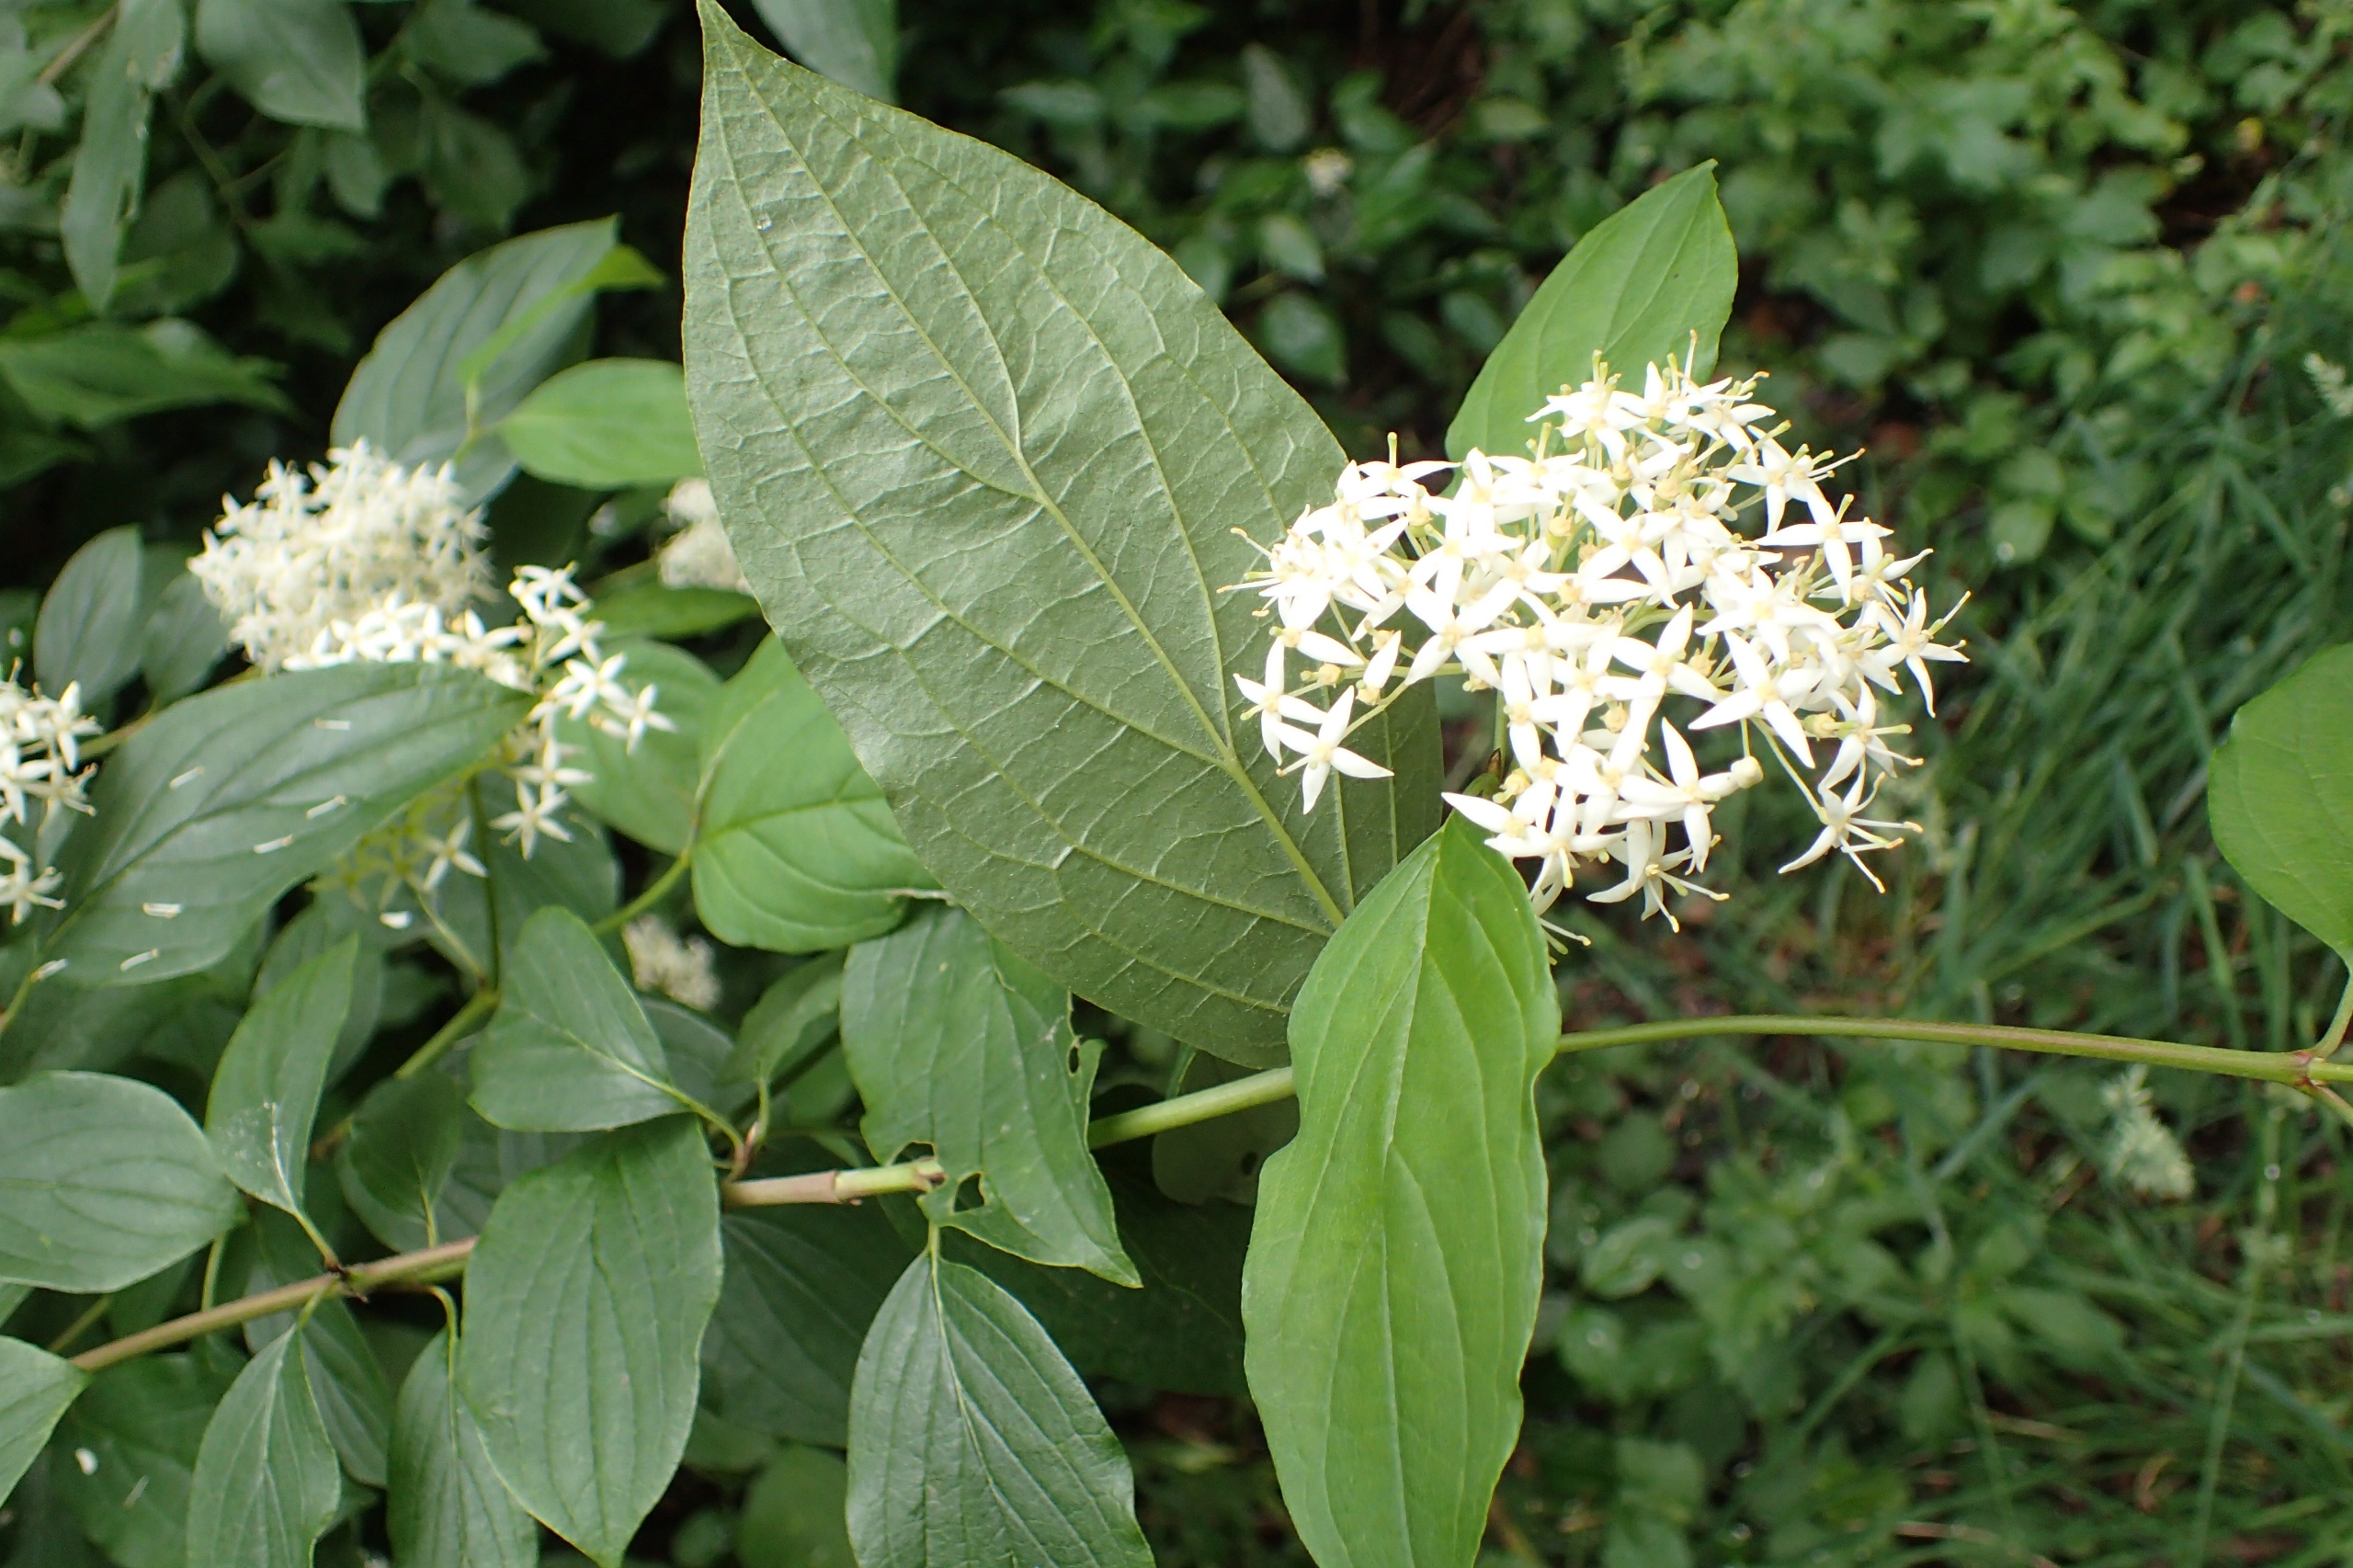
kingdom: Plantae
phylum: Tracheophyta
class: Magnoliopsida
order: Cornales
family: Cornaceae
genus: Cornus
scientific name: Cornus sanguinea
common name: Rød kornel
